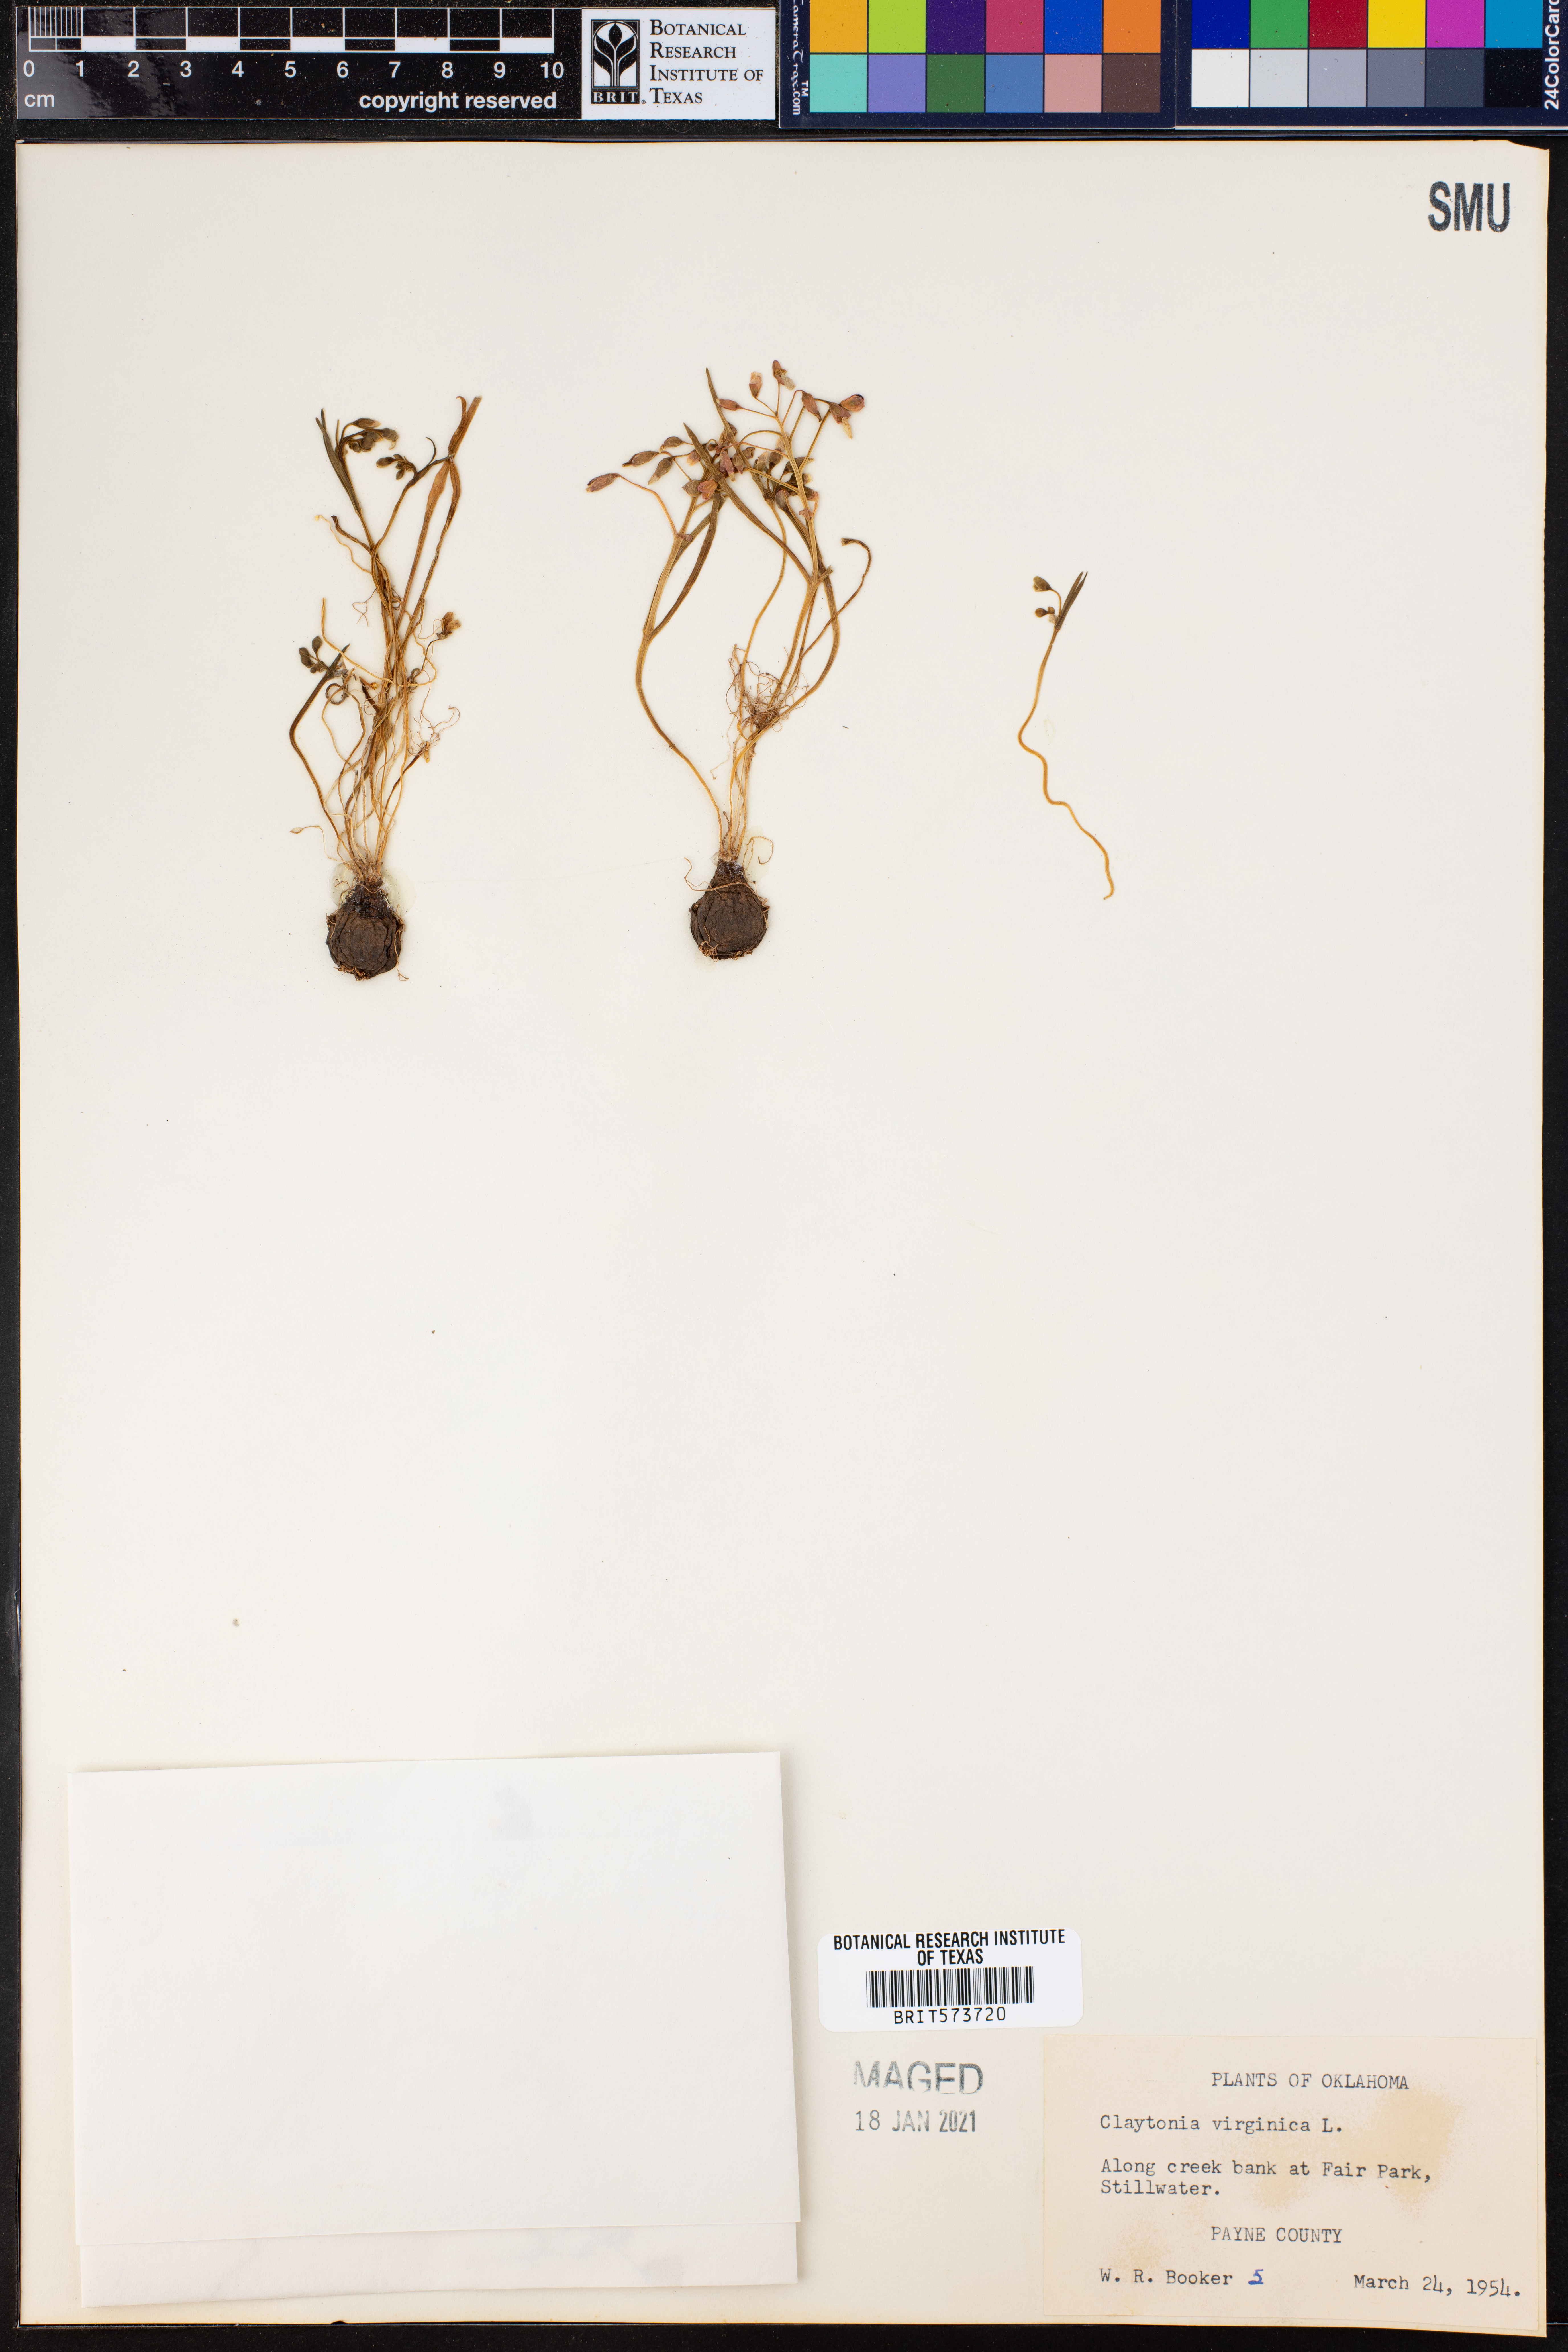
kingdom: Plantae
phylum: Tracheophyta
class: Magnoliopsida
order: Caryophyllales
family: Montiaceae
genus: Claytonia
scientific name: Claytonia virginica
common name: Virginia springbeauty
